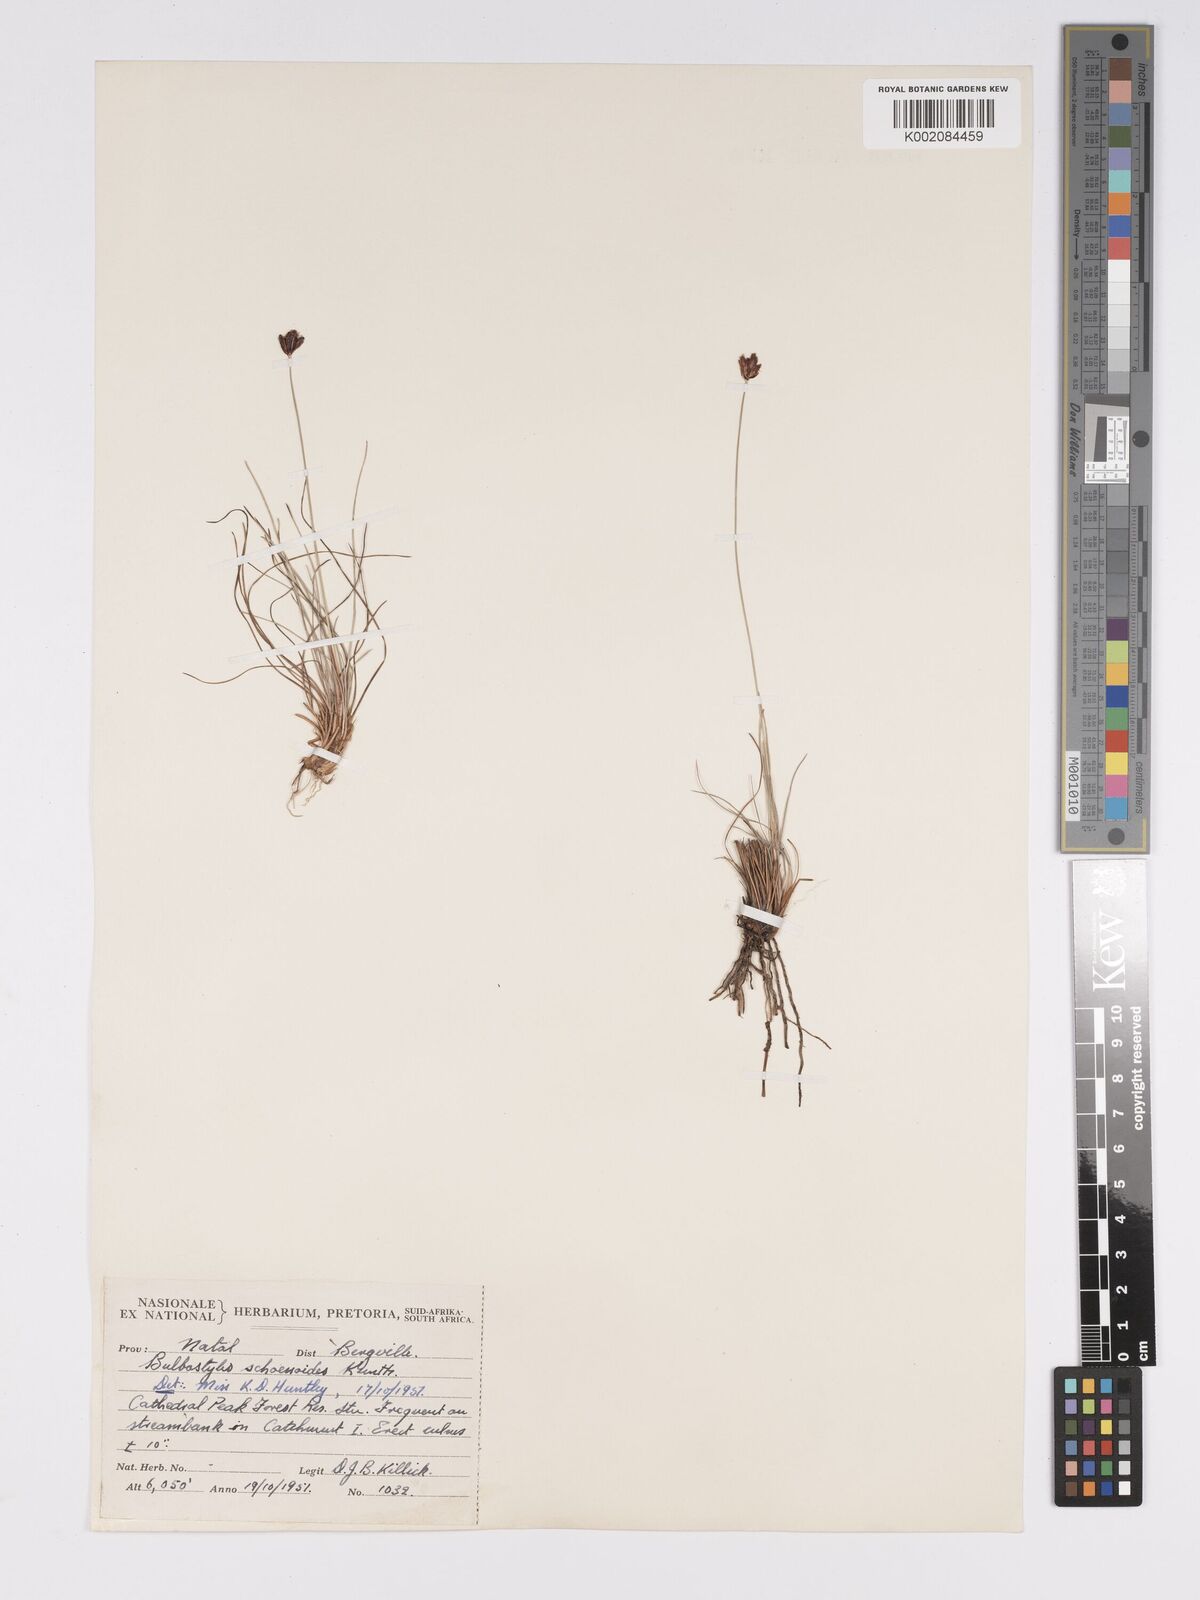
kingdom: Plantae
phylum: Tracheophyta
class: Liliopsida
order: Poales
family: Cyperaceae
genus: Bulbostylis
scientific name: Bulbostylis schoenoides
